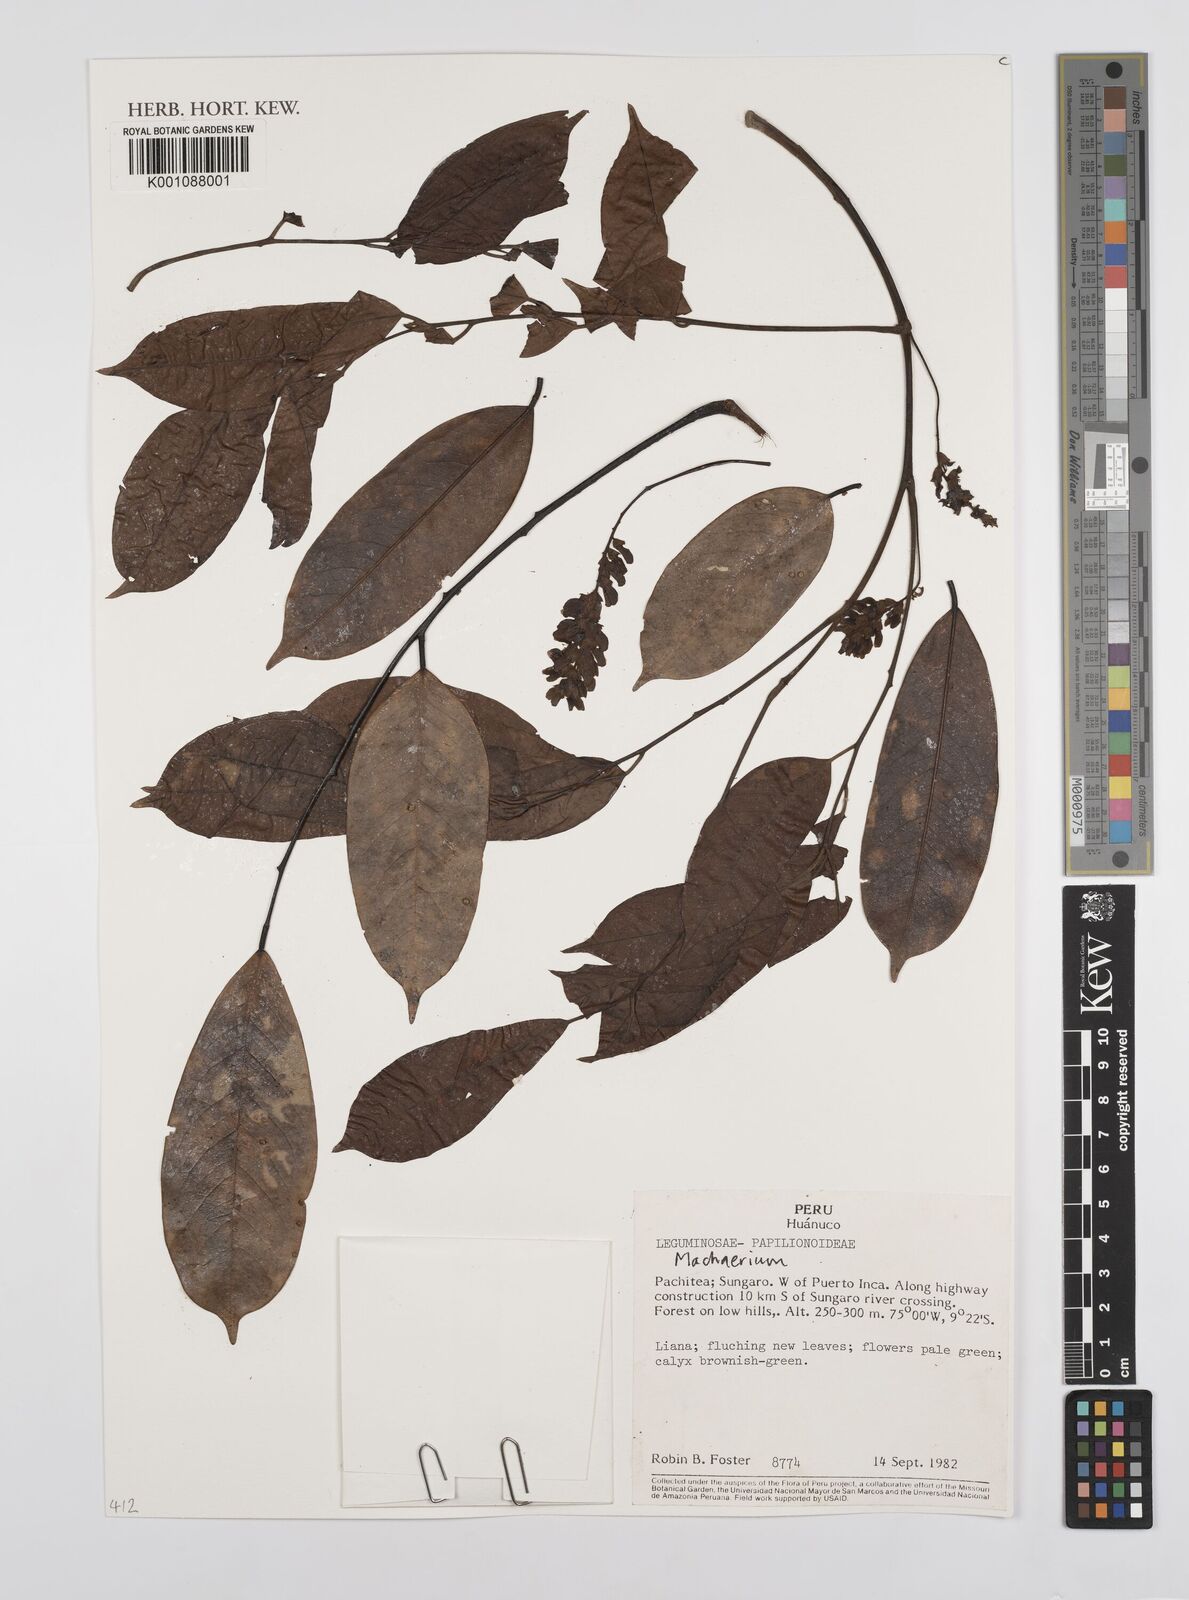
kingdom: Plantae
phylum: Tracheophyta
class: Magnoliopsida
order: Fabales
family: Fabaceae
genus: Machaerium
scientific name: Machaerium
